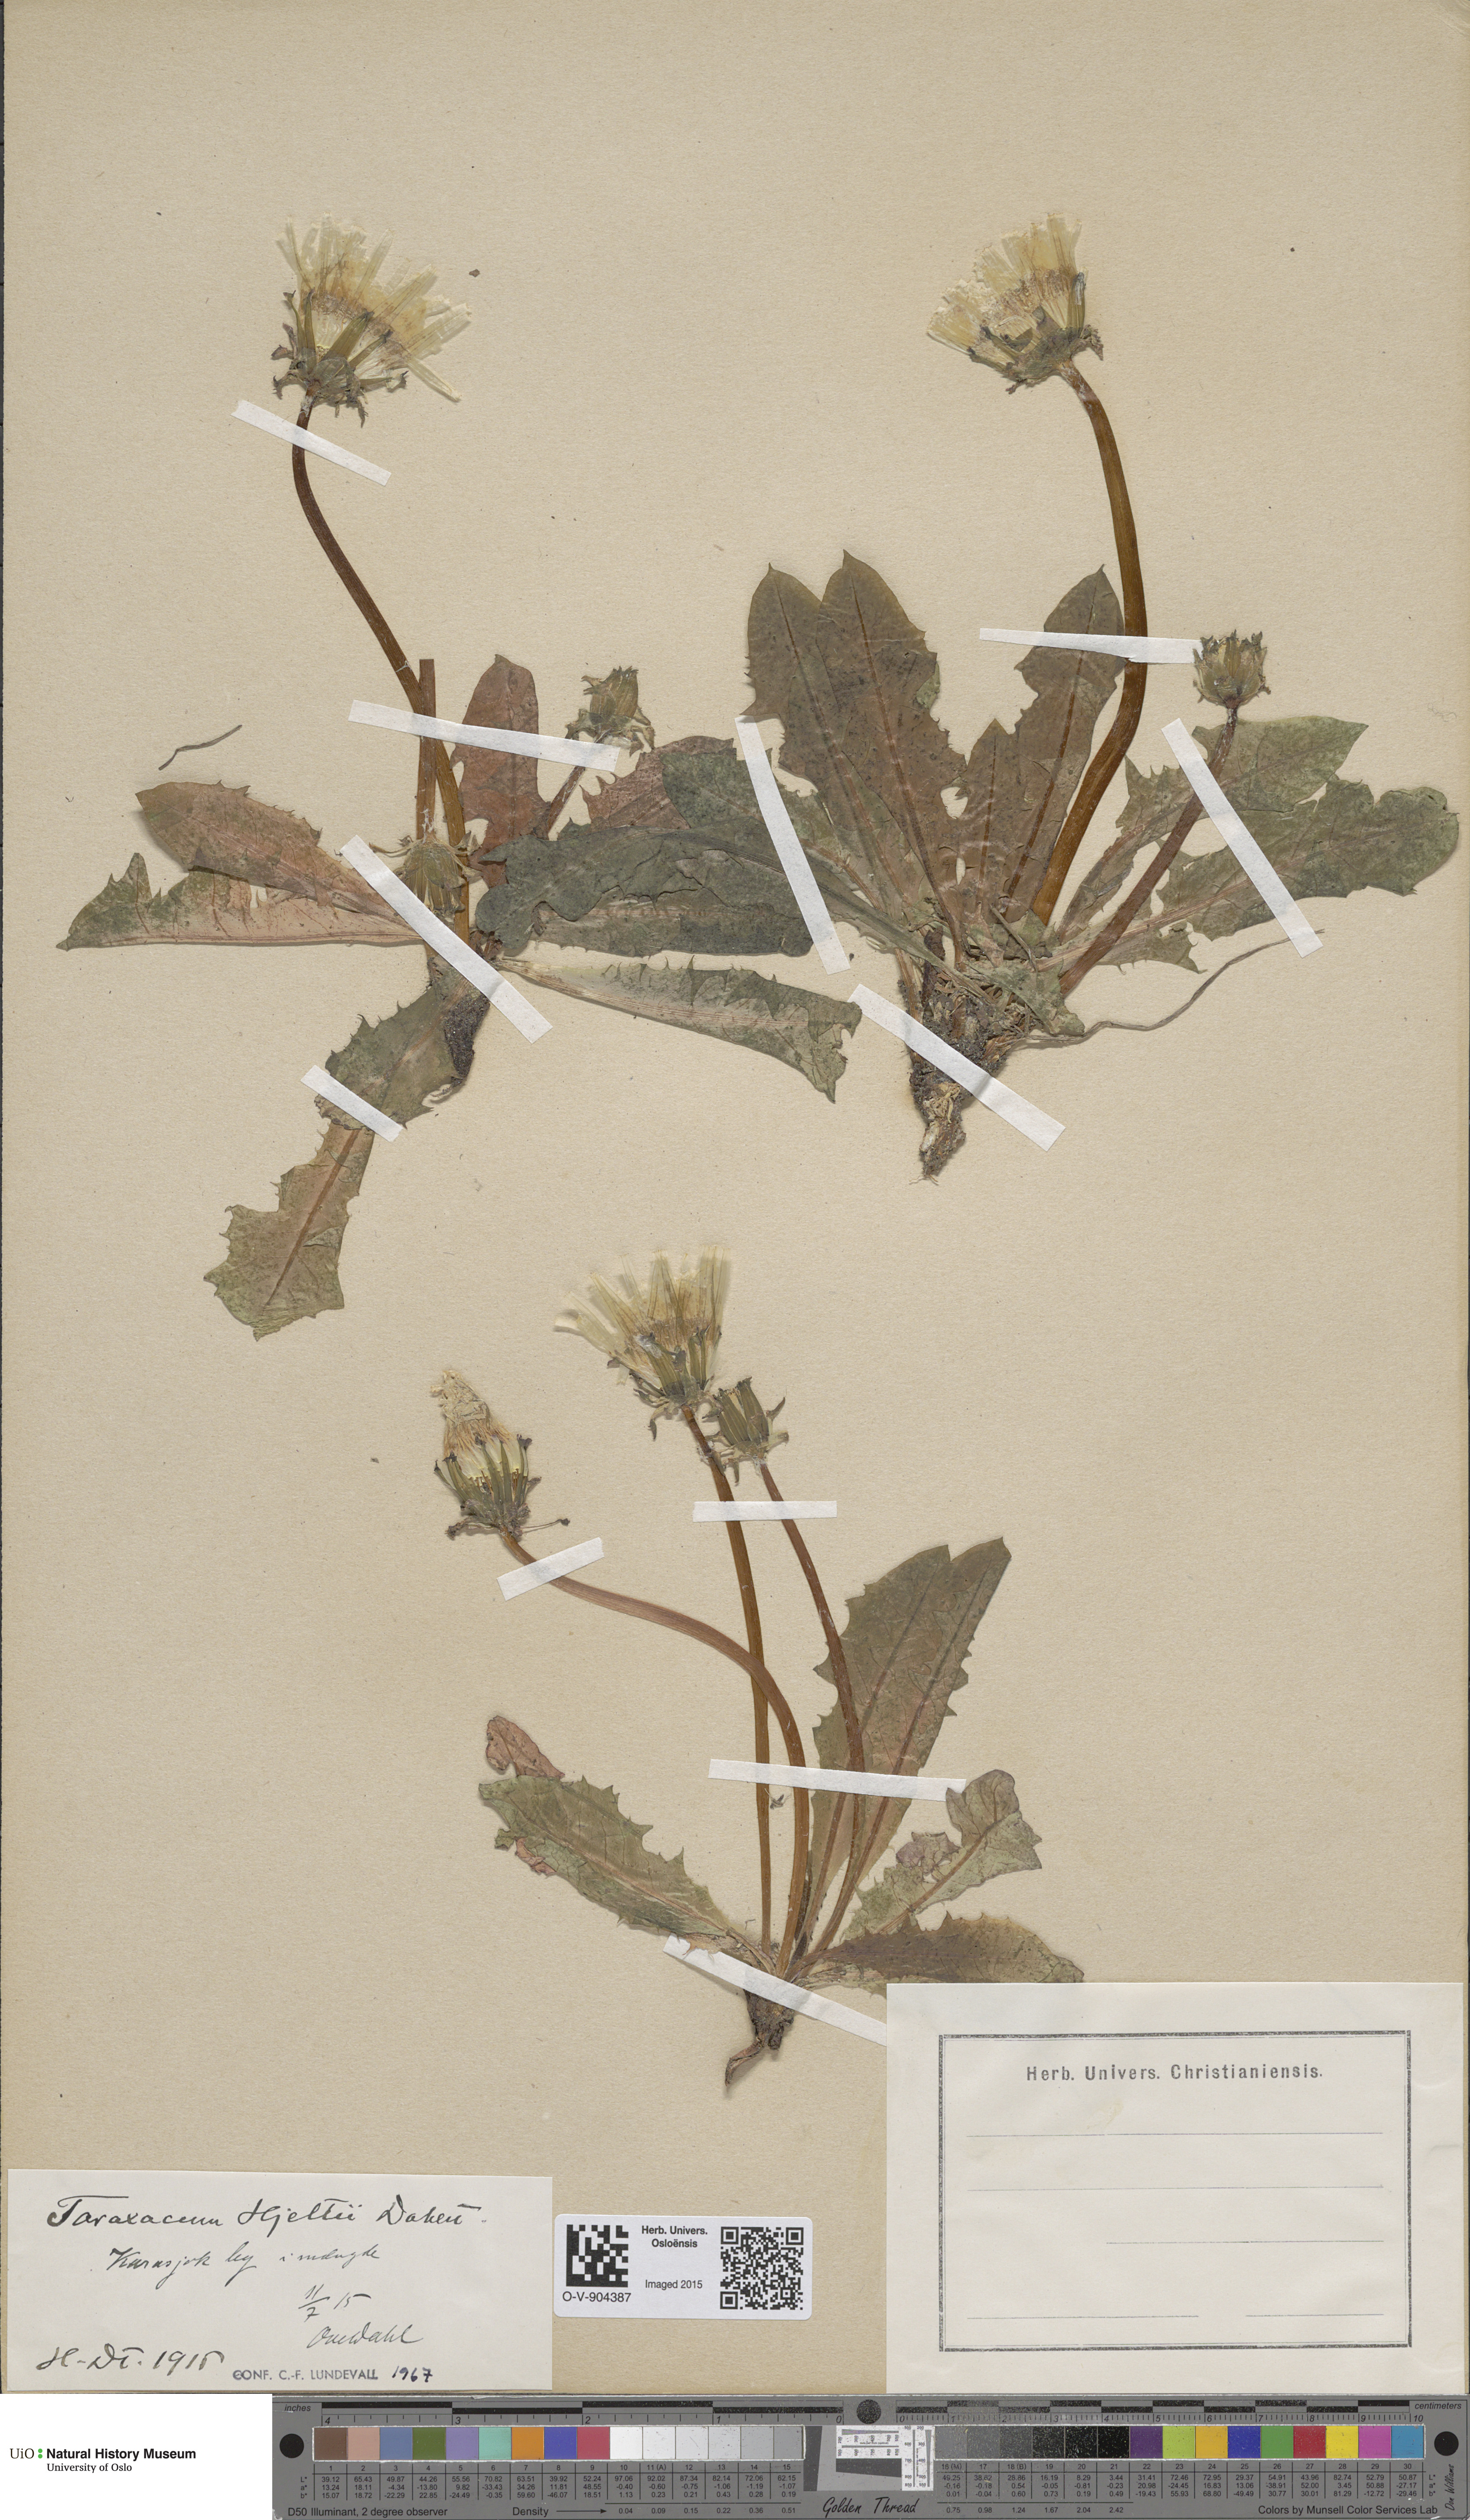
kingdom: Plantae
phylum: Tracheophyta
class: Magnoliopsida
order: Asterales
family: Asteraceae
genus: Taraxacum
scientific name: Taraxacum hjeltii
